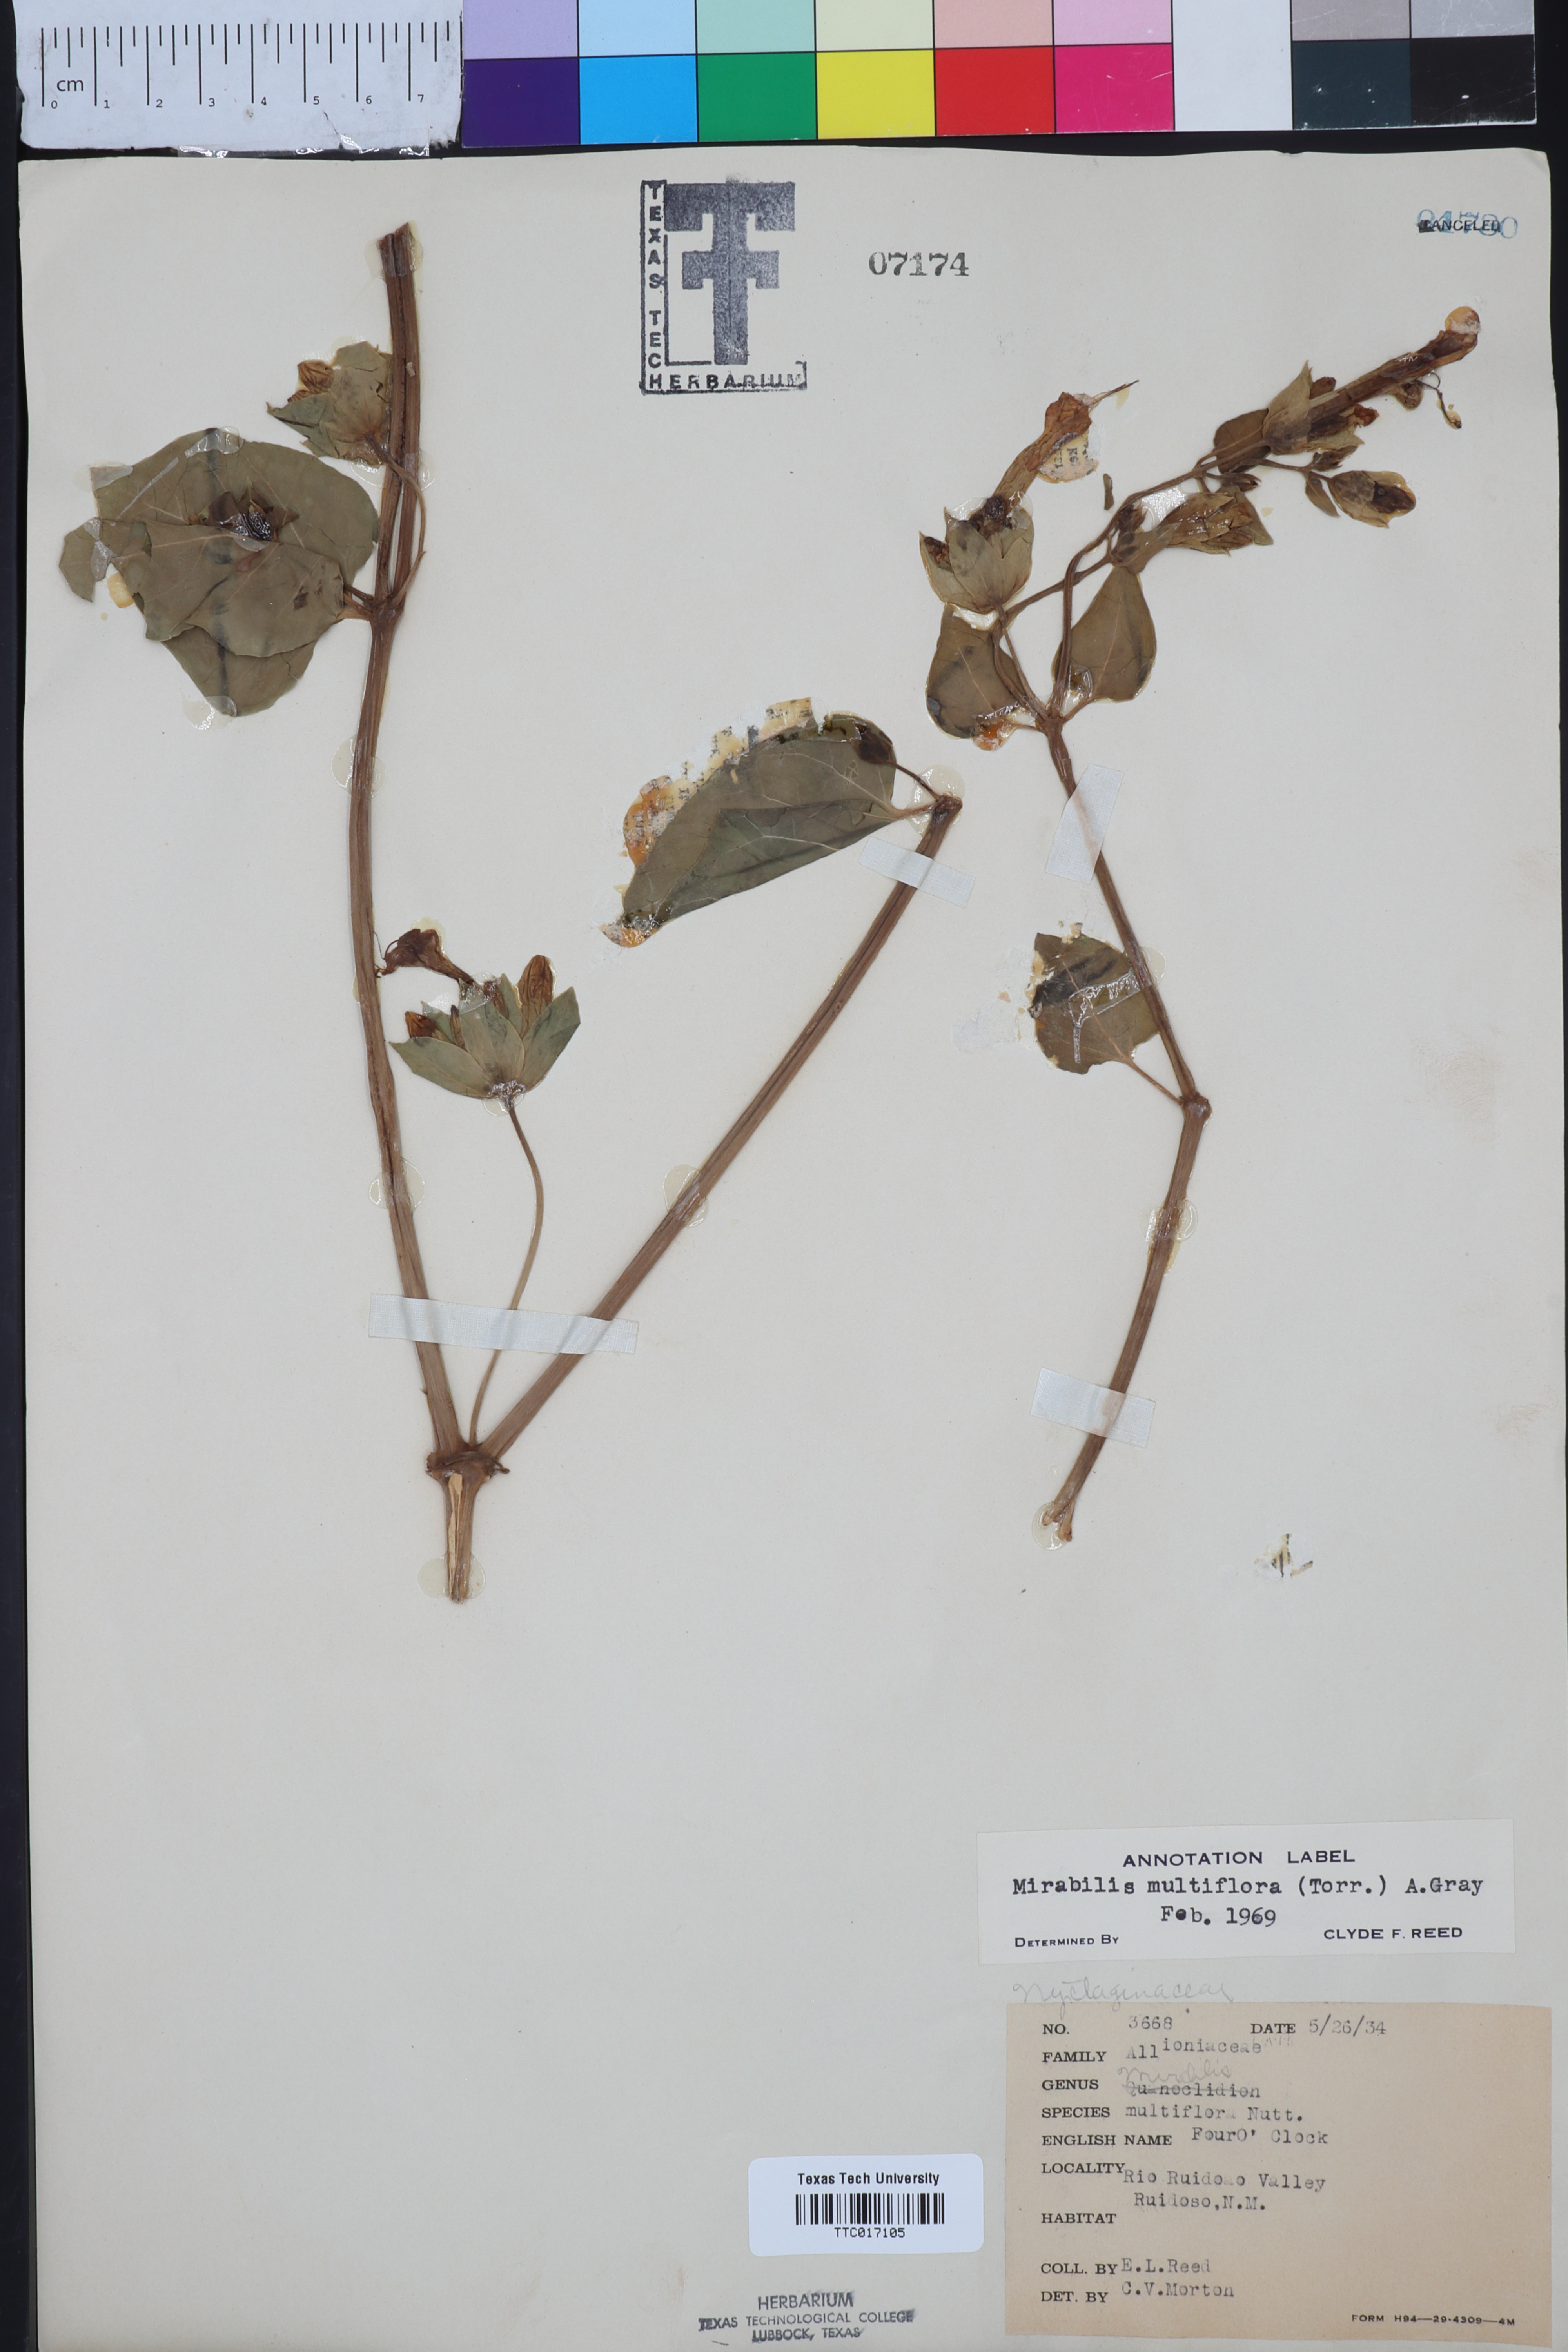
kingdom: Plantae
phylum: Tracheophyta
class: Magnoliopsida
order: Caryophyllales
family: Nyctaginaceae
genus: Mirabilis
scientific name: Mirabilis multiflora
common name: Froebel's four-o'clock
